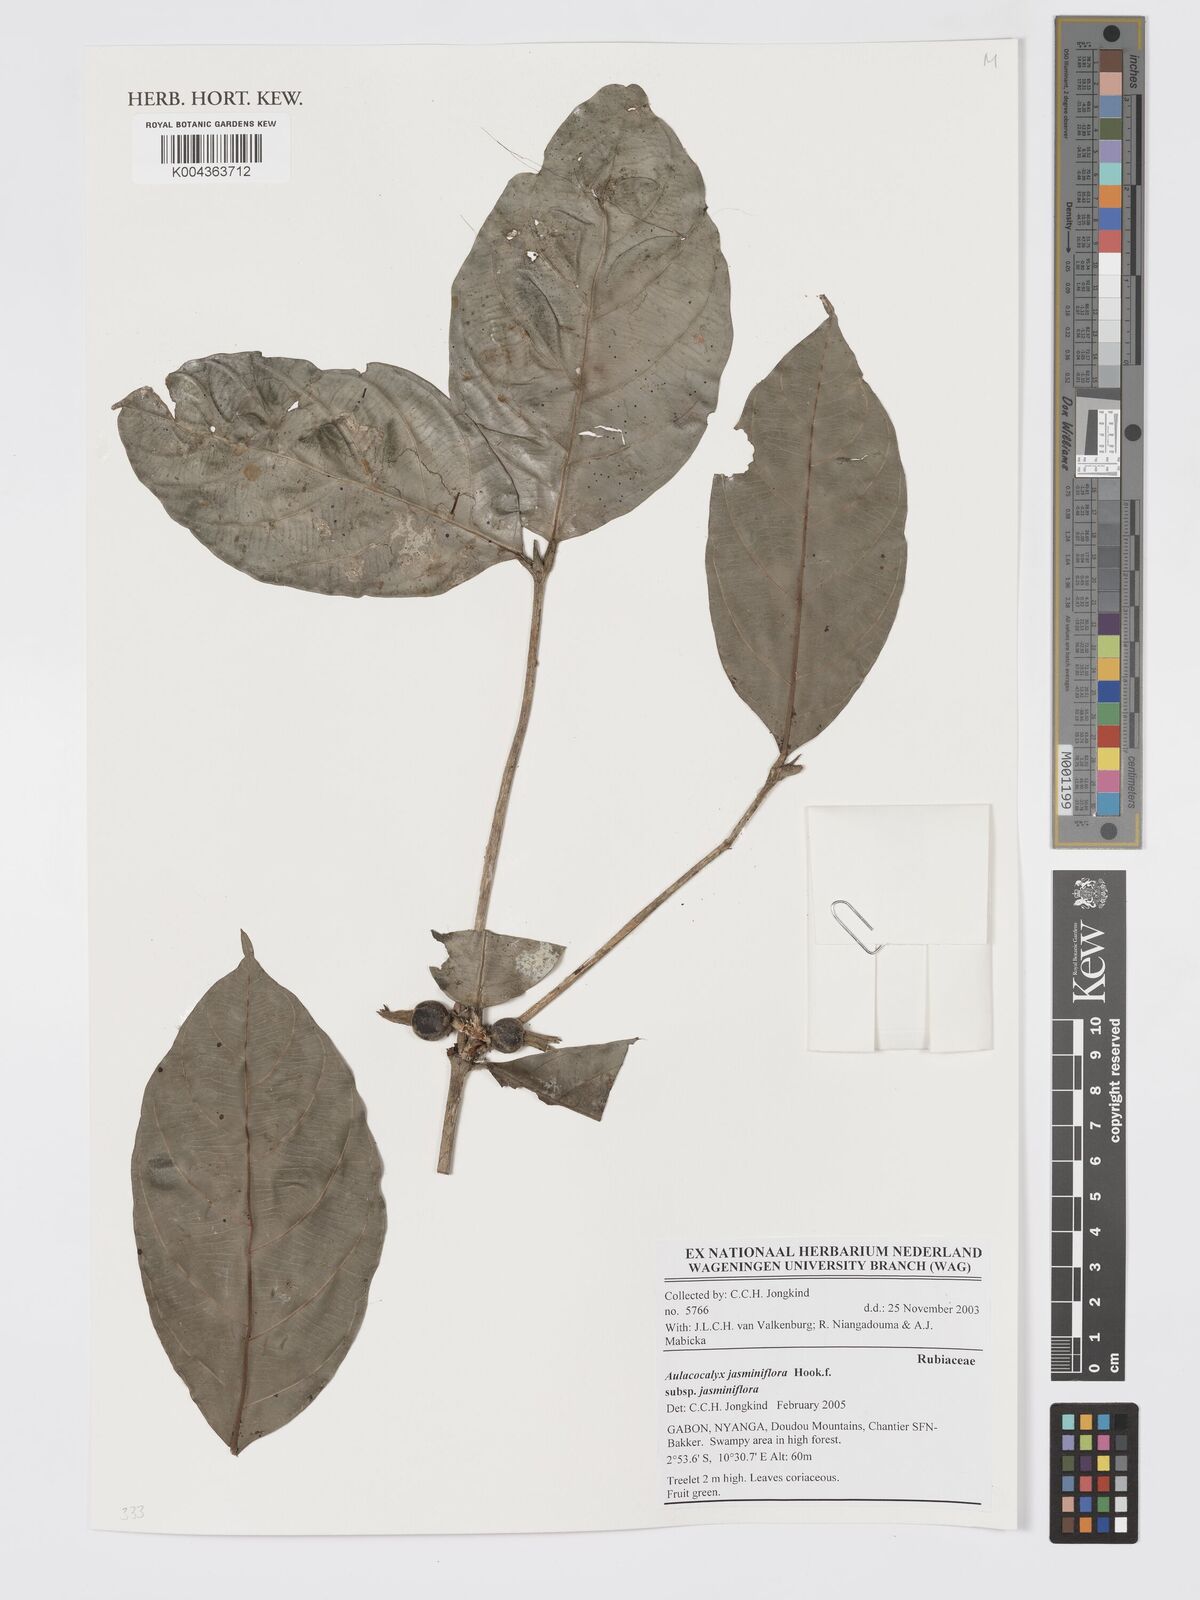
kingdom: Plantae
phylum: Tracheophyta
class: Magnoliopsida
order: Gentianales
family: Rubiaceae
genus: Aulacocalyx
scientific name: Aulacocalyx jasminiflora
